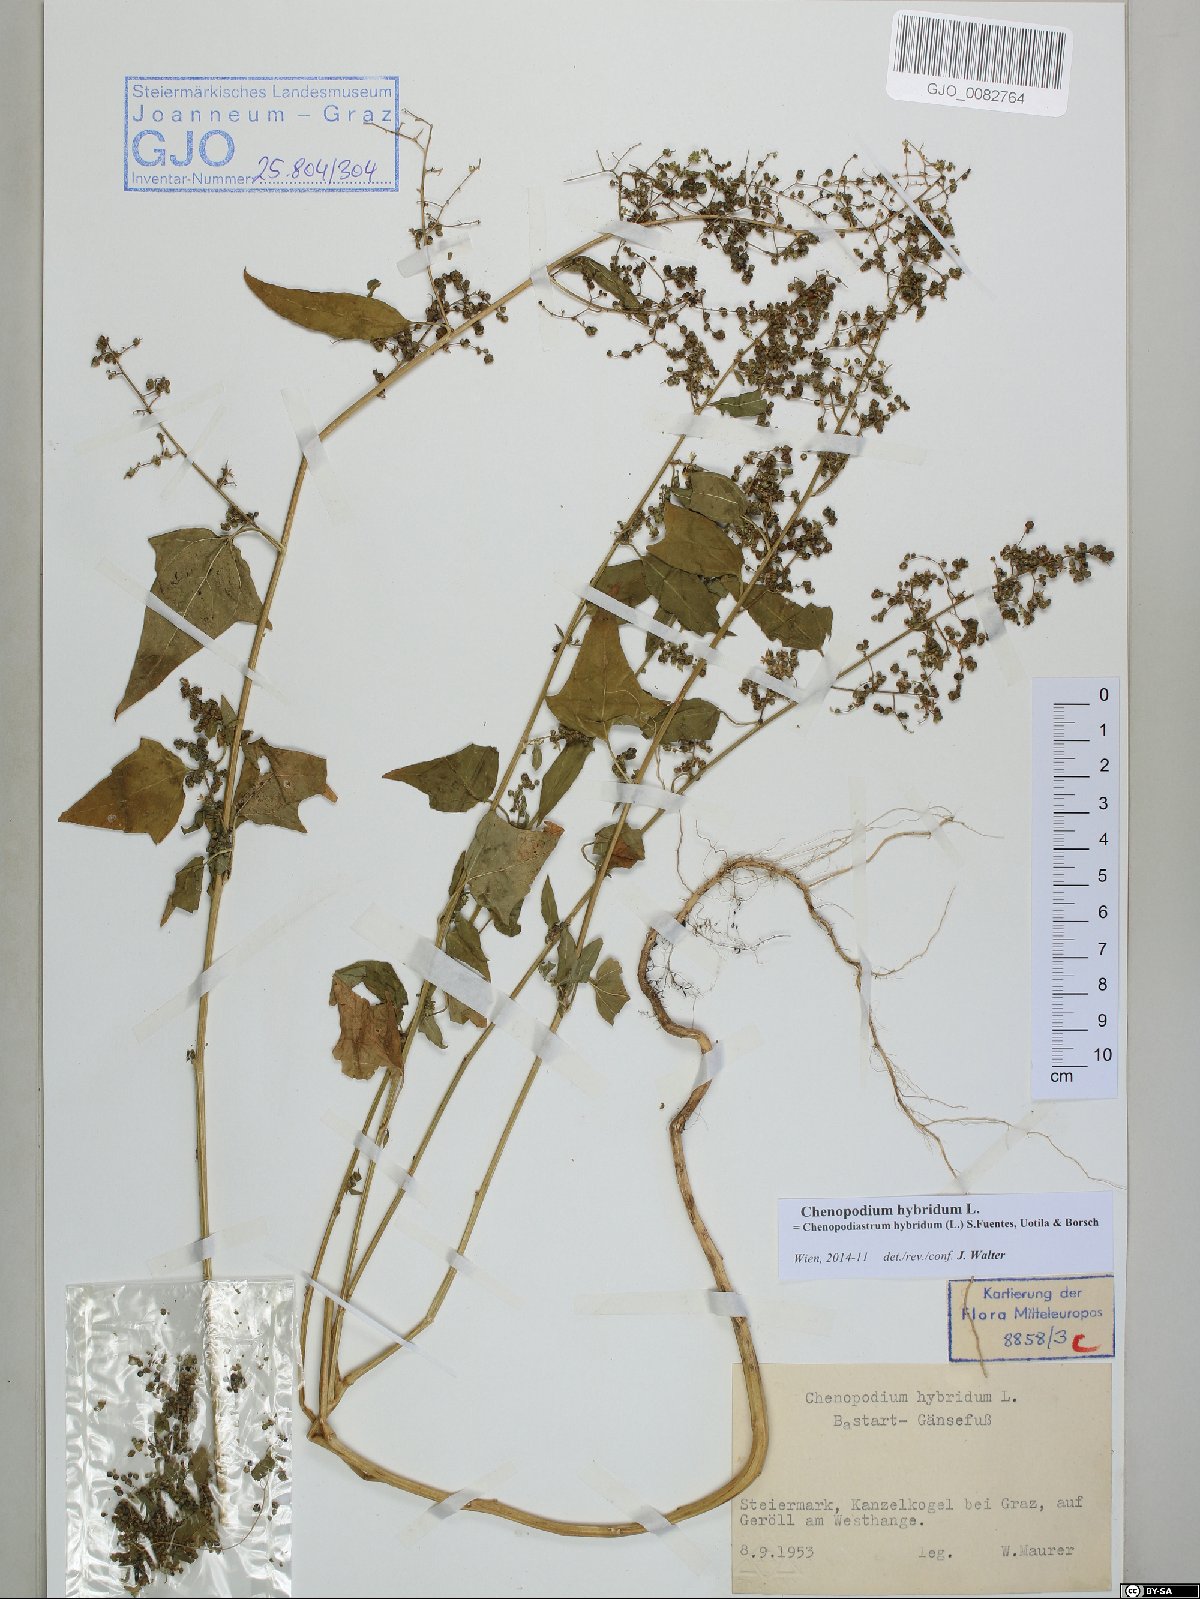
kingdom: Plantae
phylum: Tracheophyta
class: Magnoliopsida
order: Caryophyllales
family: Amaranthaceae
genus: Chenopodiastrum
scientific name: Chenopodiastrum hybridum
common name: Mapleleaf goosefoot
